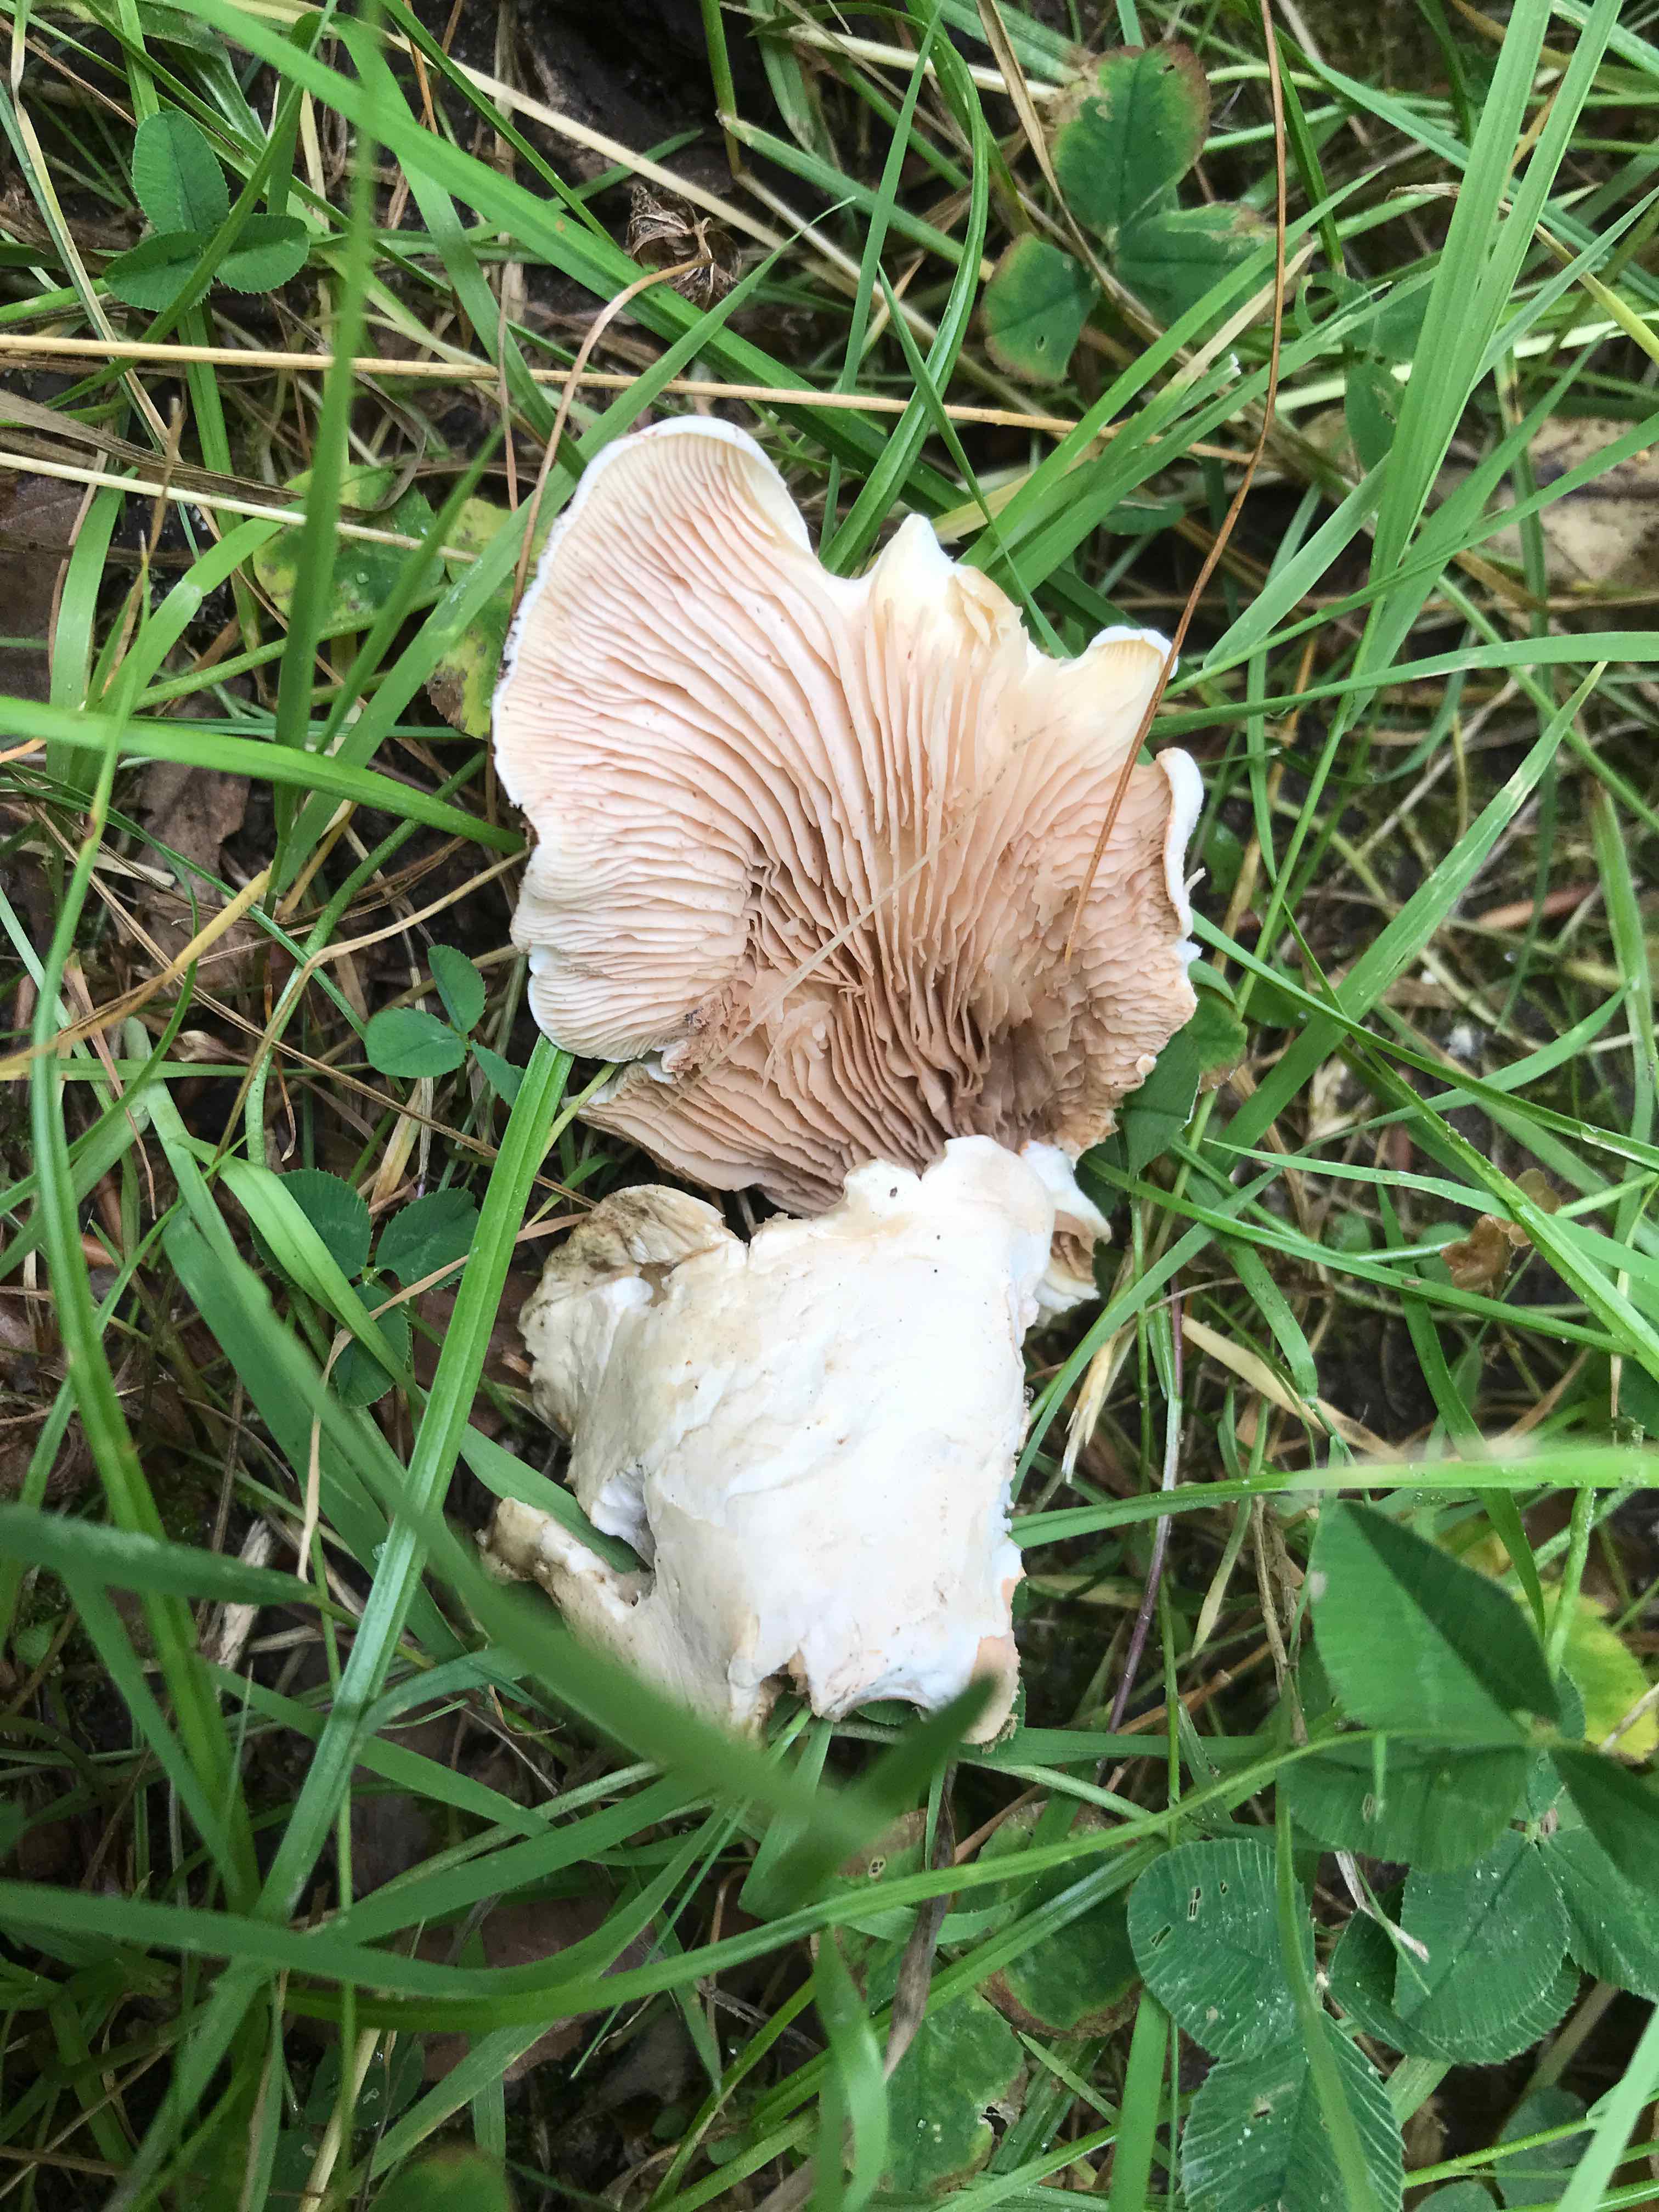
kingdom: Fungi
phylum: Basidiomycota
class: Agaricomycetes
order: Agaricales
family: Entolomataceae
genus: Clitopilus
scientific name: Clitopilus prunulus
